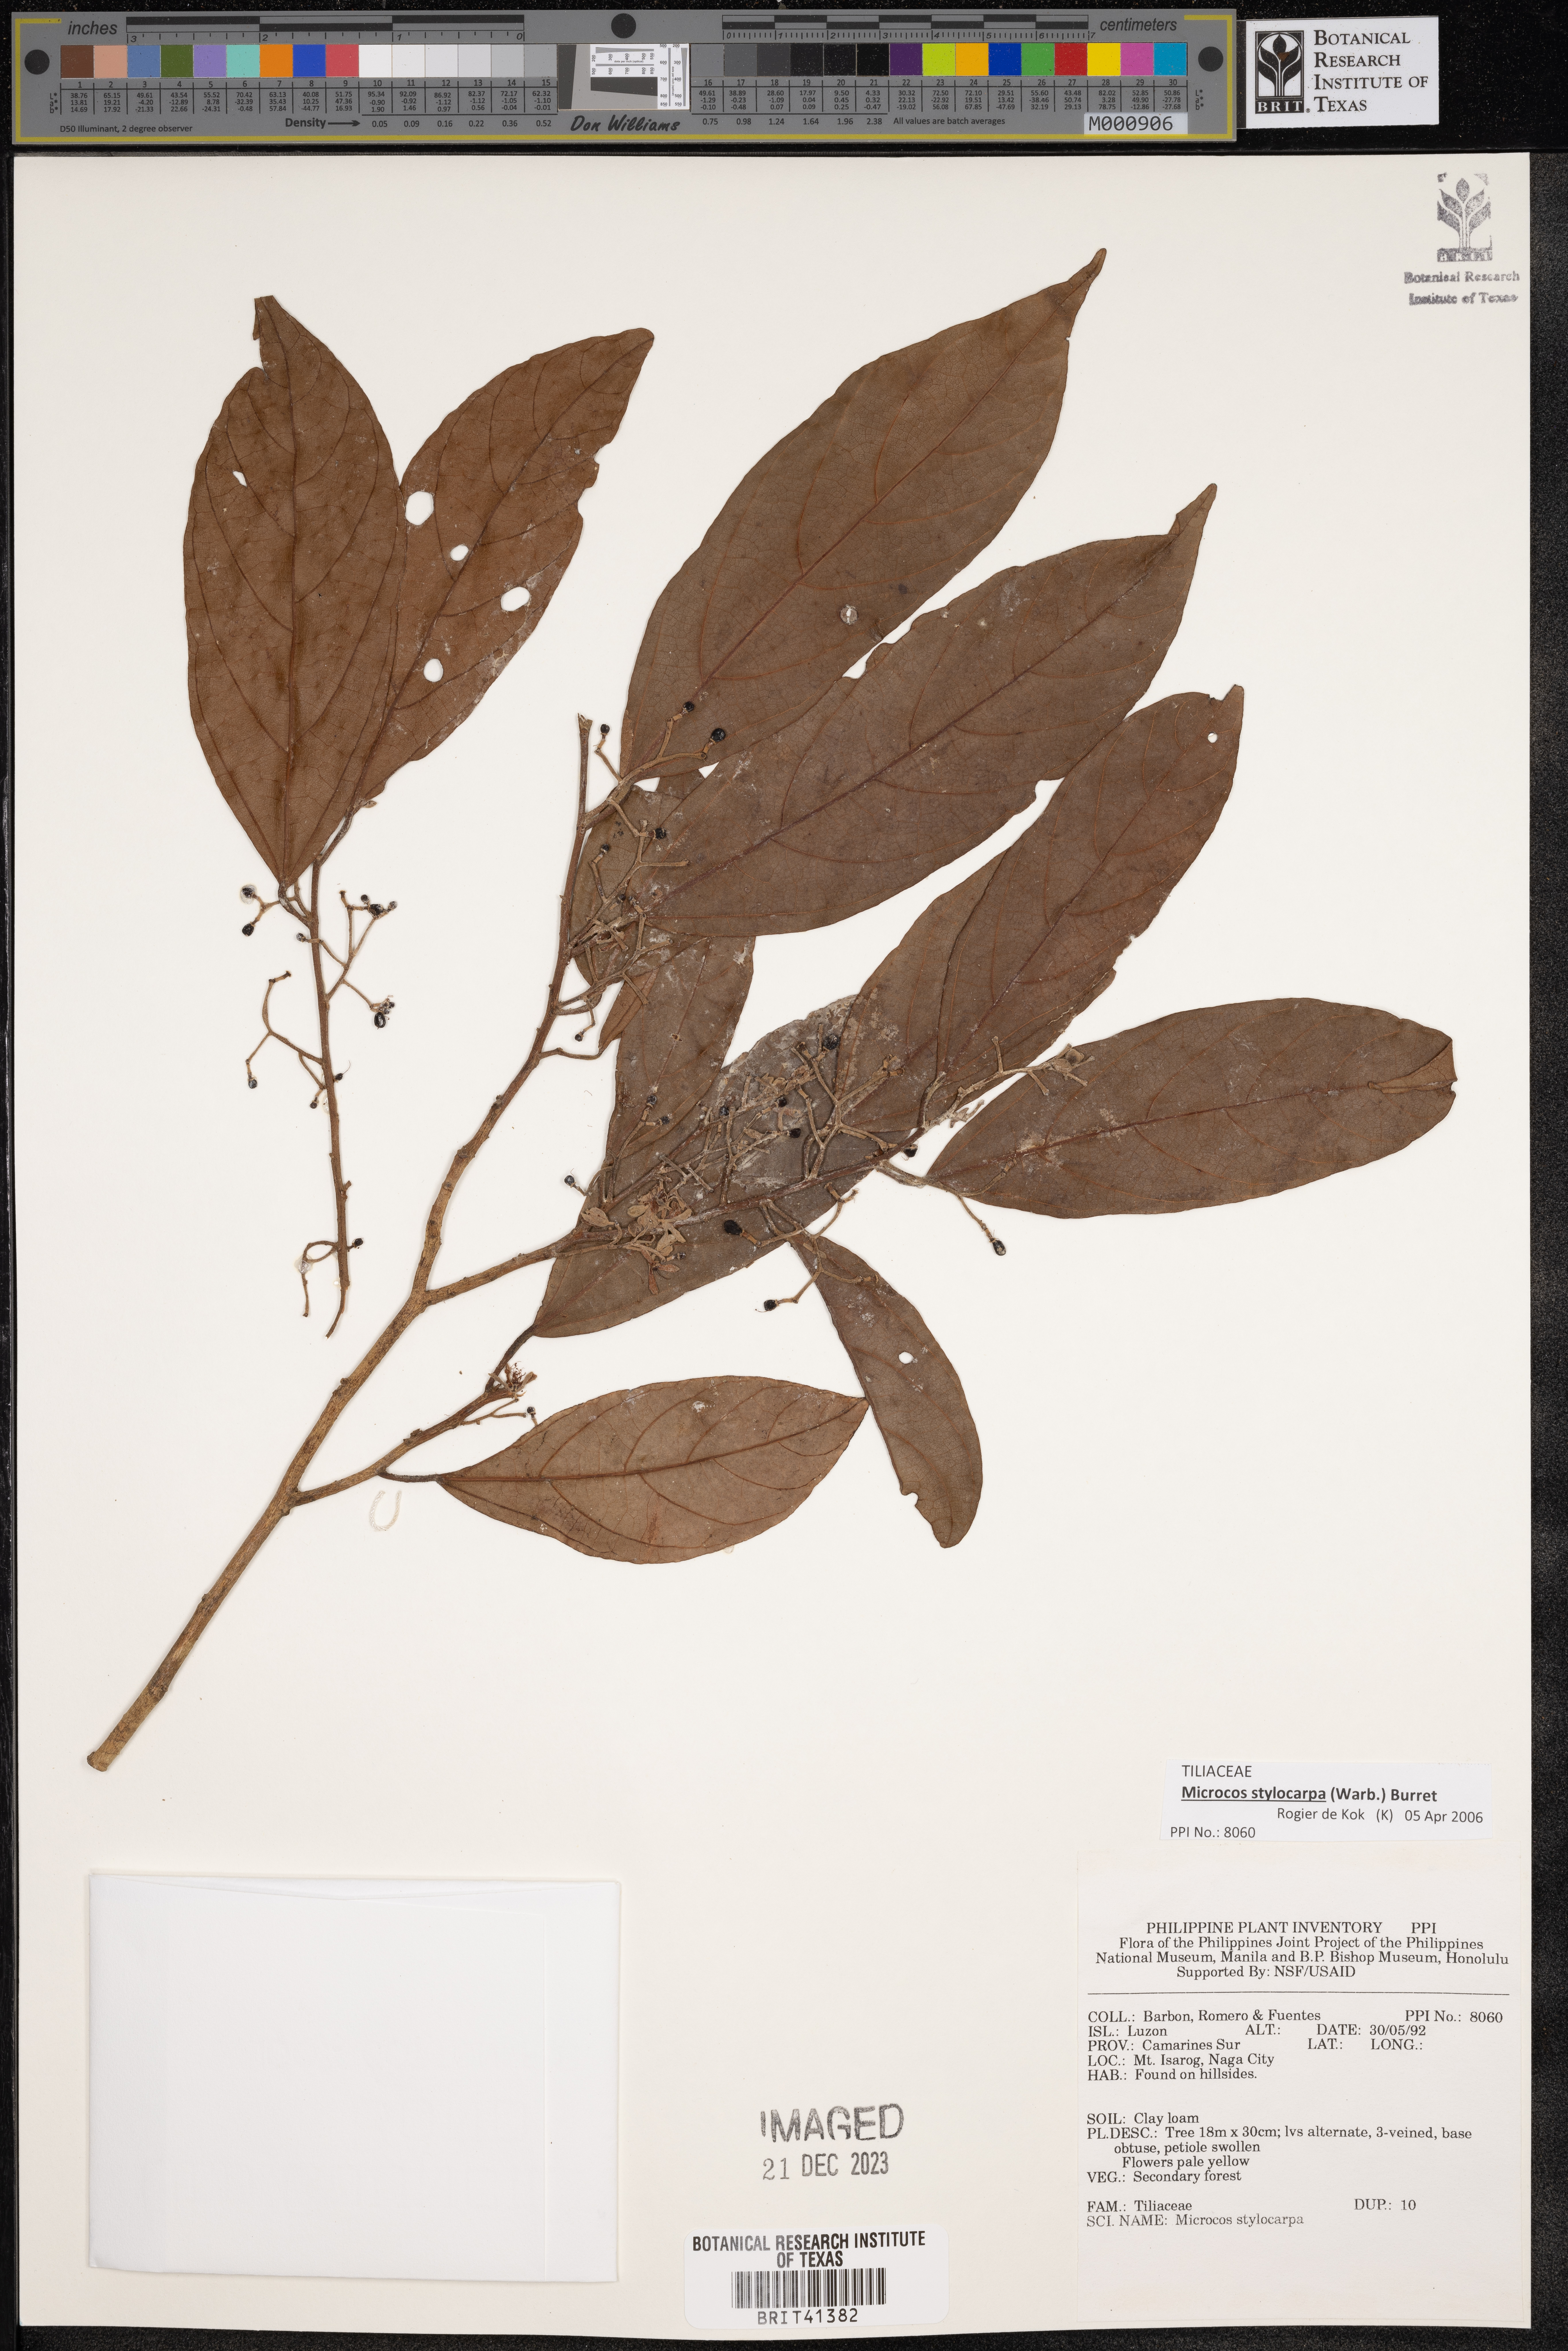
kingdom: Plantae
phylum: Tracheophyta
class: Magnoliopsida
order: Malvales
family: Malvaceae
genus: Microcos
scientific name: Microcos triflora
